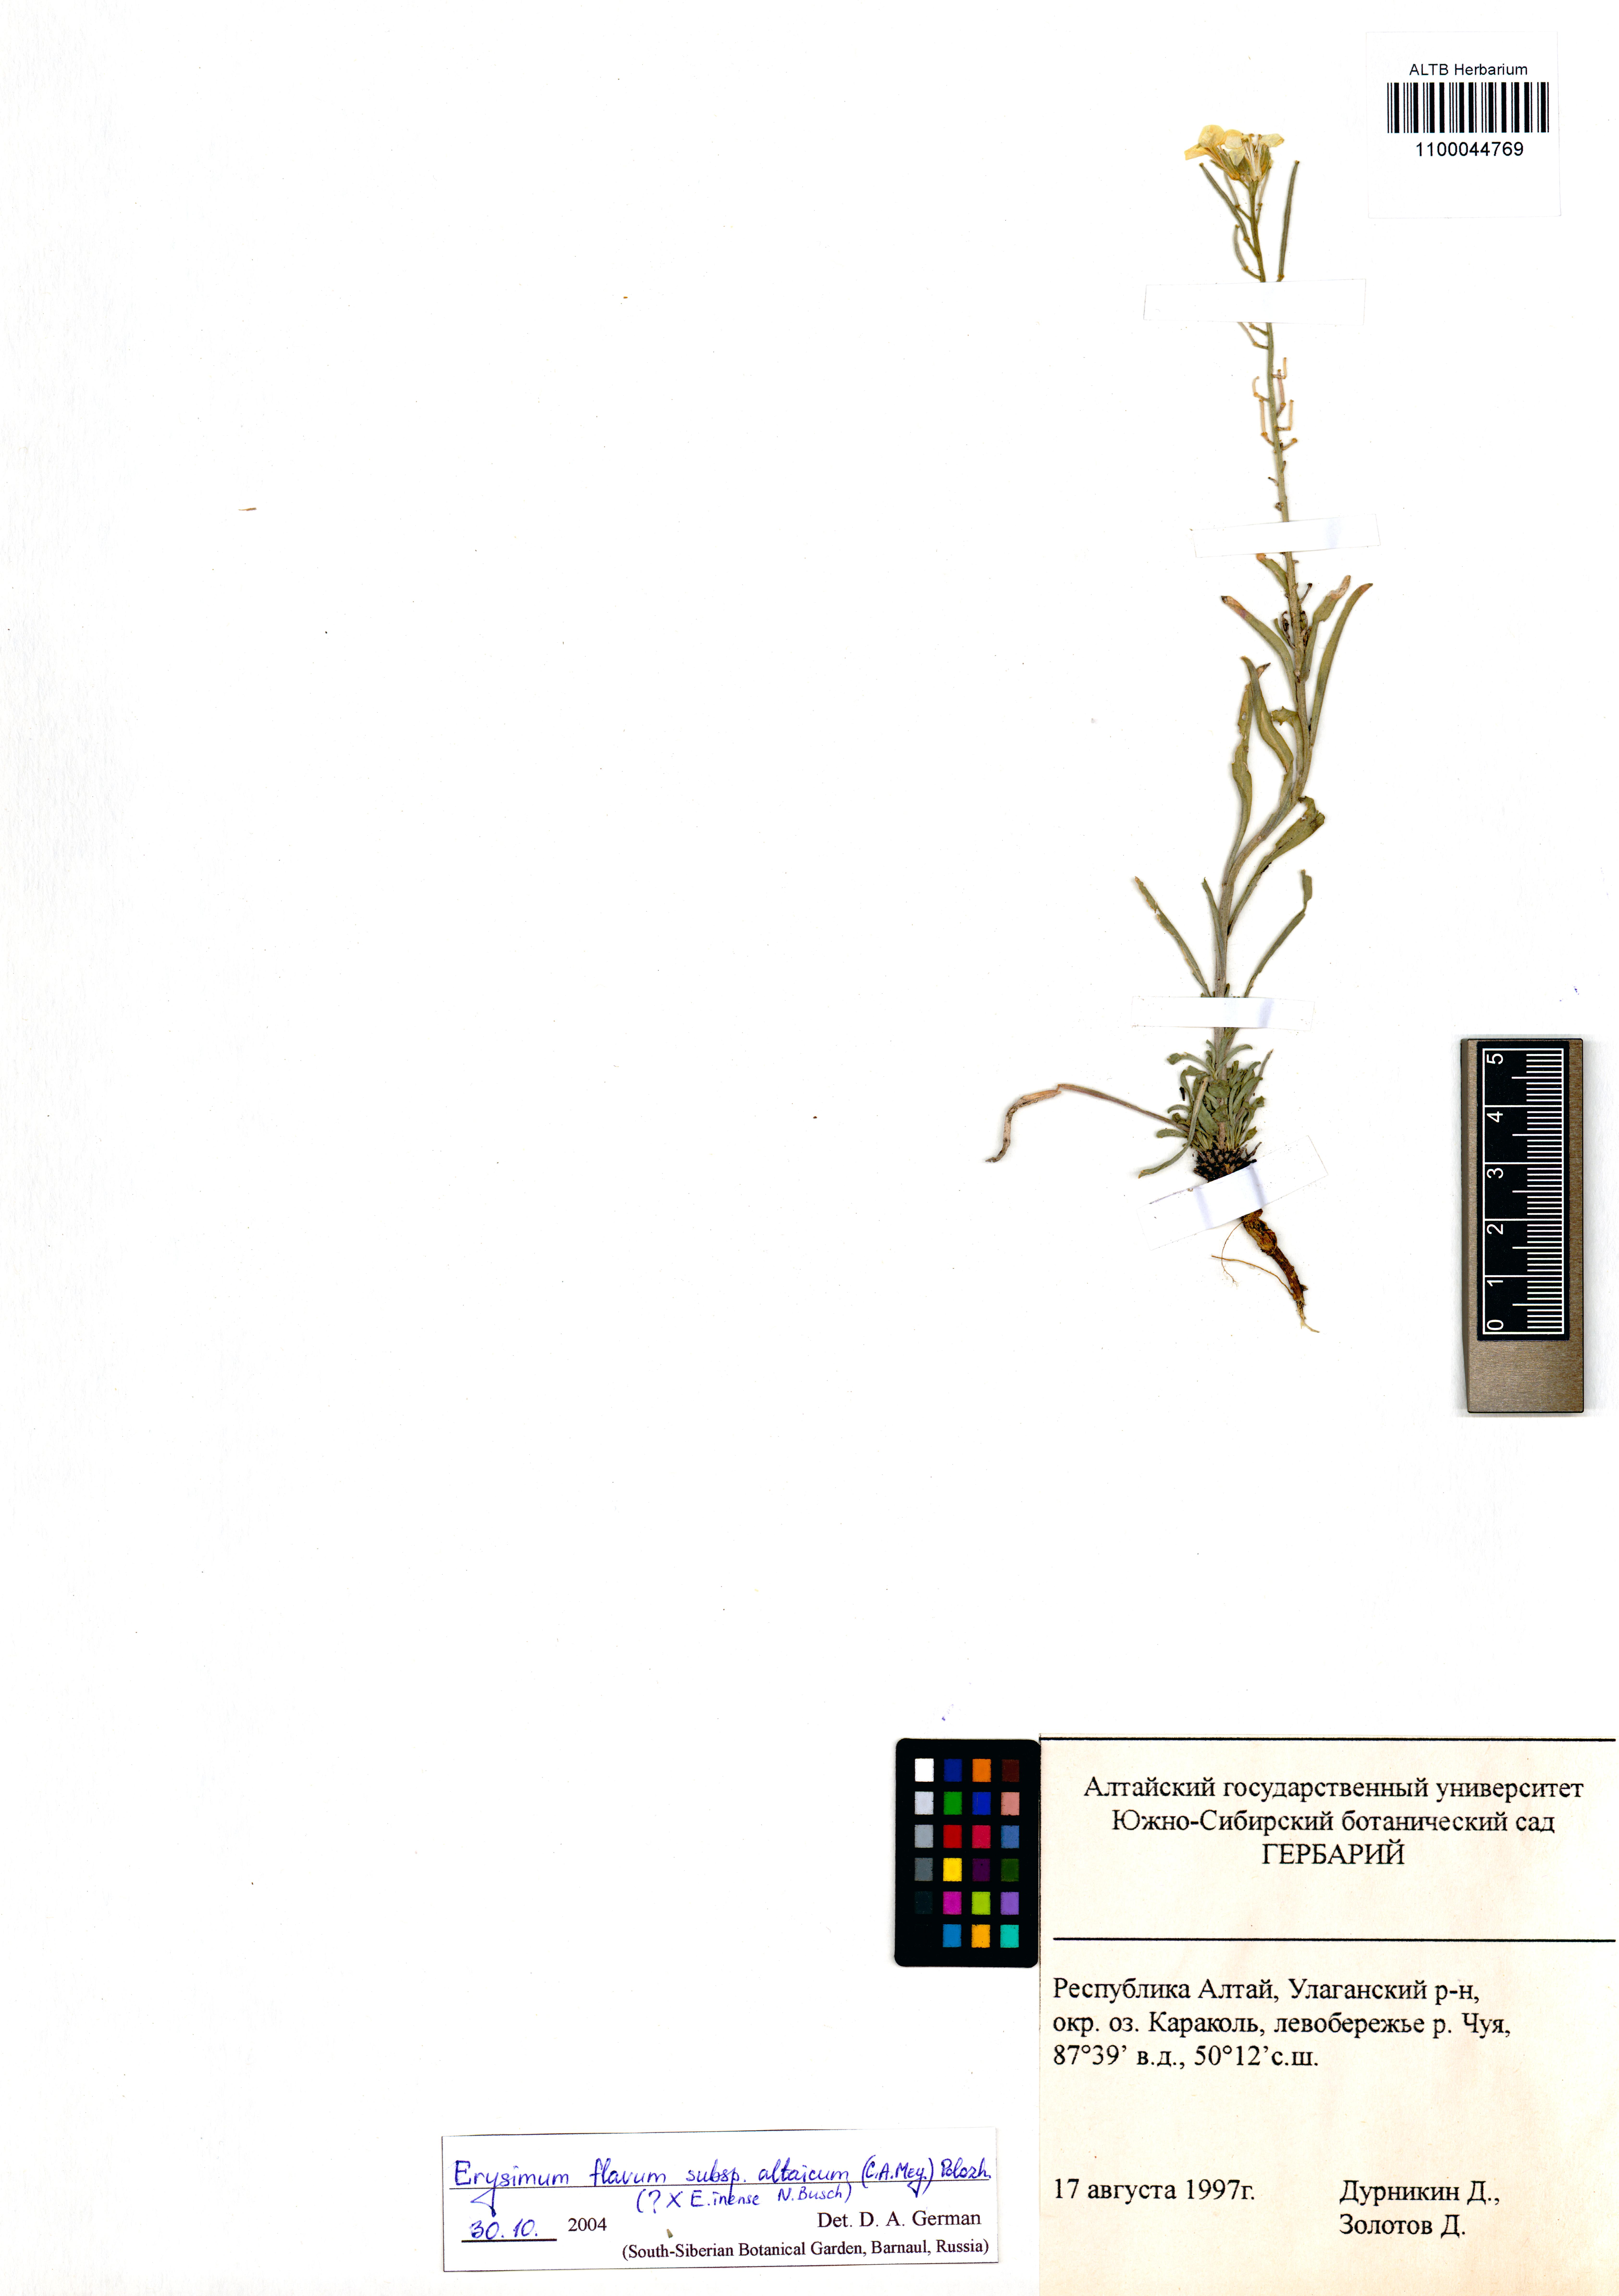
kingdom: Plantae
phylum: Tracheophyta
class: Magnoliopsida
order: Brassicales
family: Brassicaceae
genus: Erysimum
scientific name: Erysimum flavum
